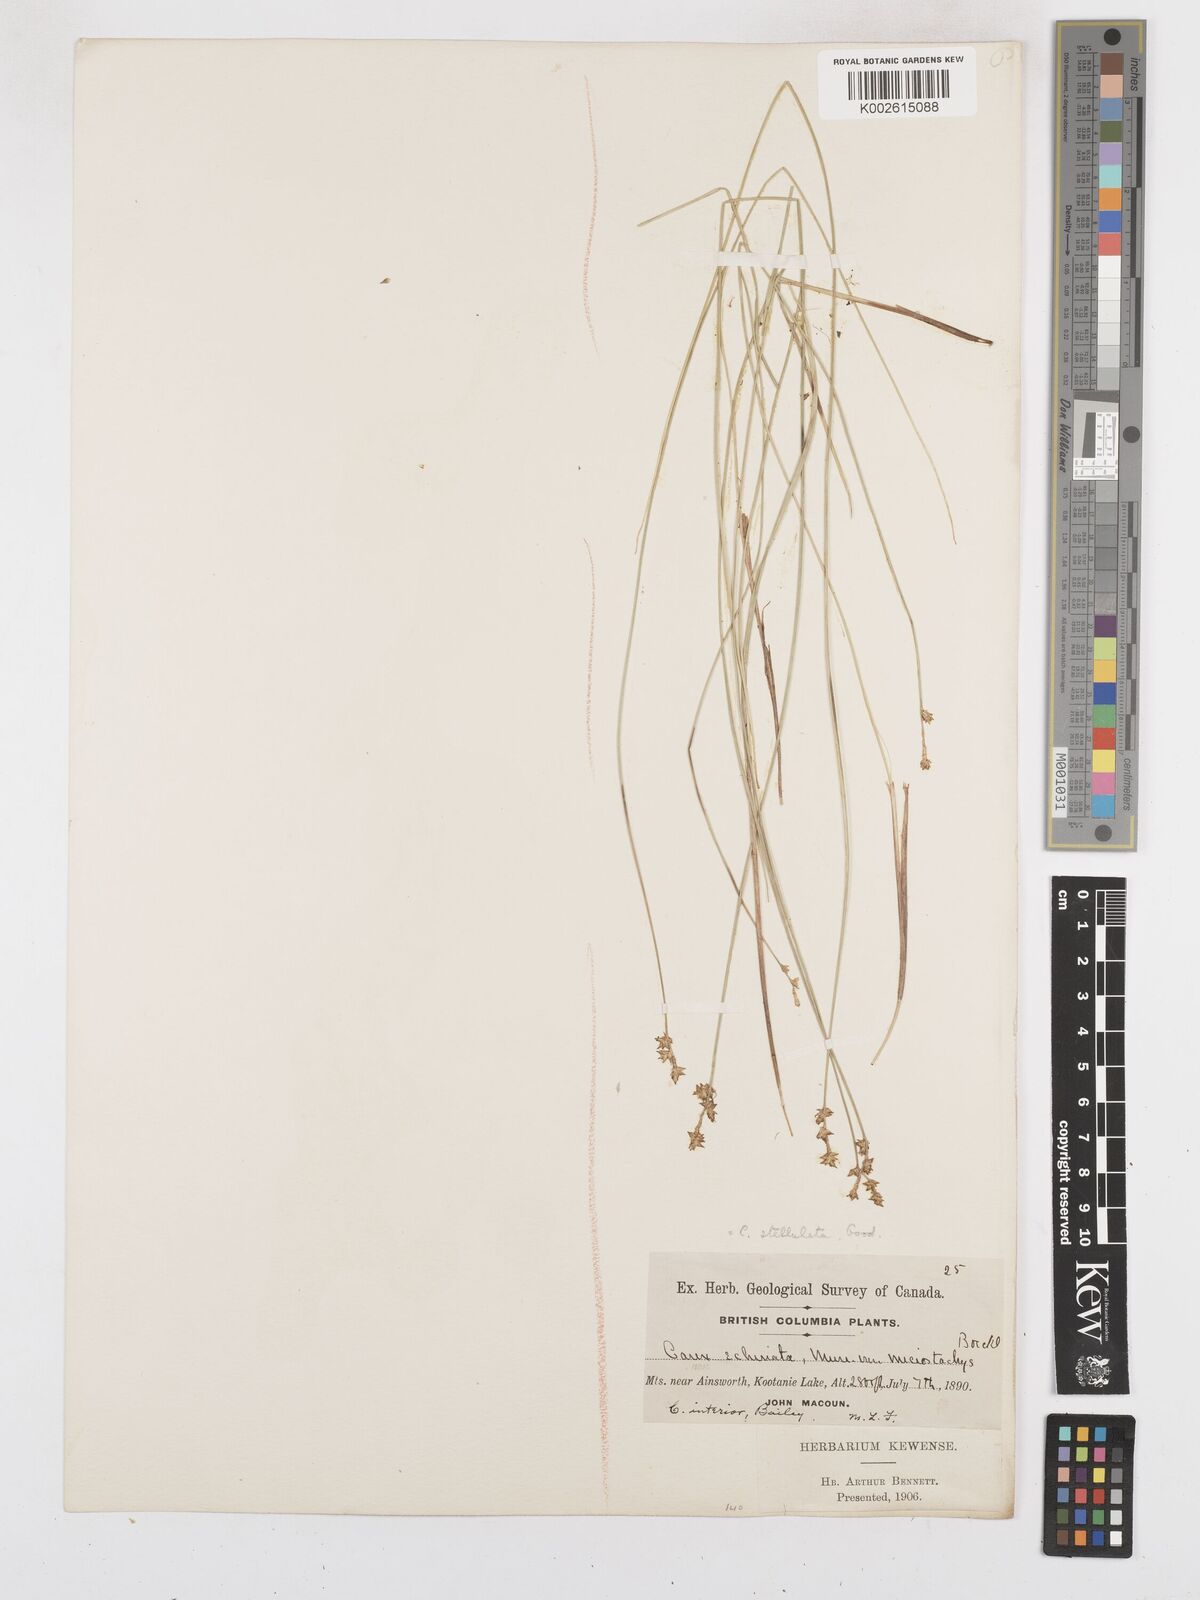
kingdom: Plantae
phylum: Tracheophyta
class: Liliopsida
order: Poales
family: Cyperaceae
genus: Carex
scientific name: Carex echinata
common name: Star sedge
